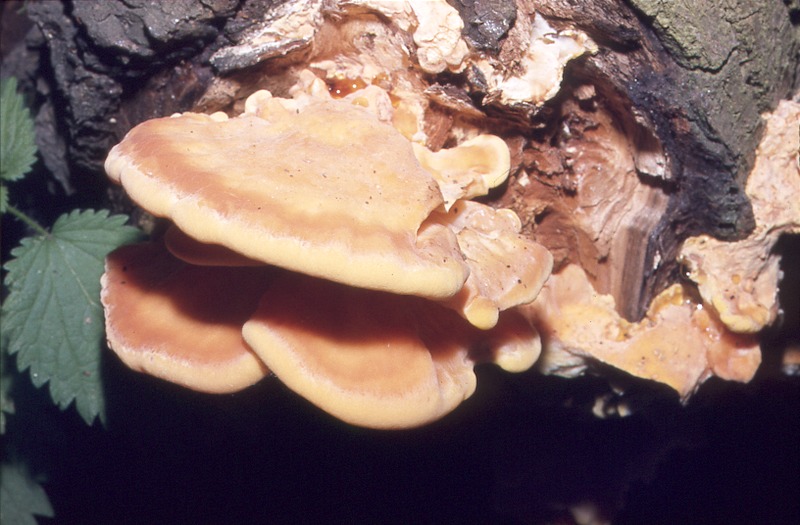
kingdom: Fungi
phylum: Basidiomycota
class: Agaricomycetes
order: Polyporales
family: Laetiporaceae
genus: Laetiporus
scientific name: Laetiporus sulphureus
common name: Chicken of the woods
